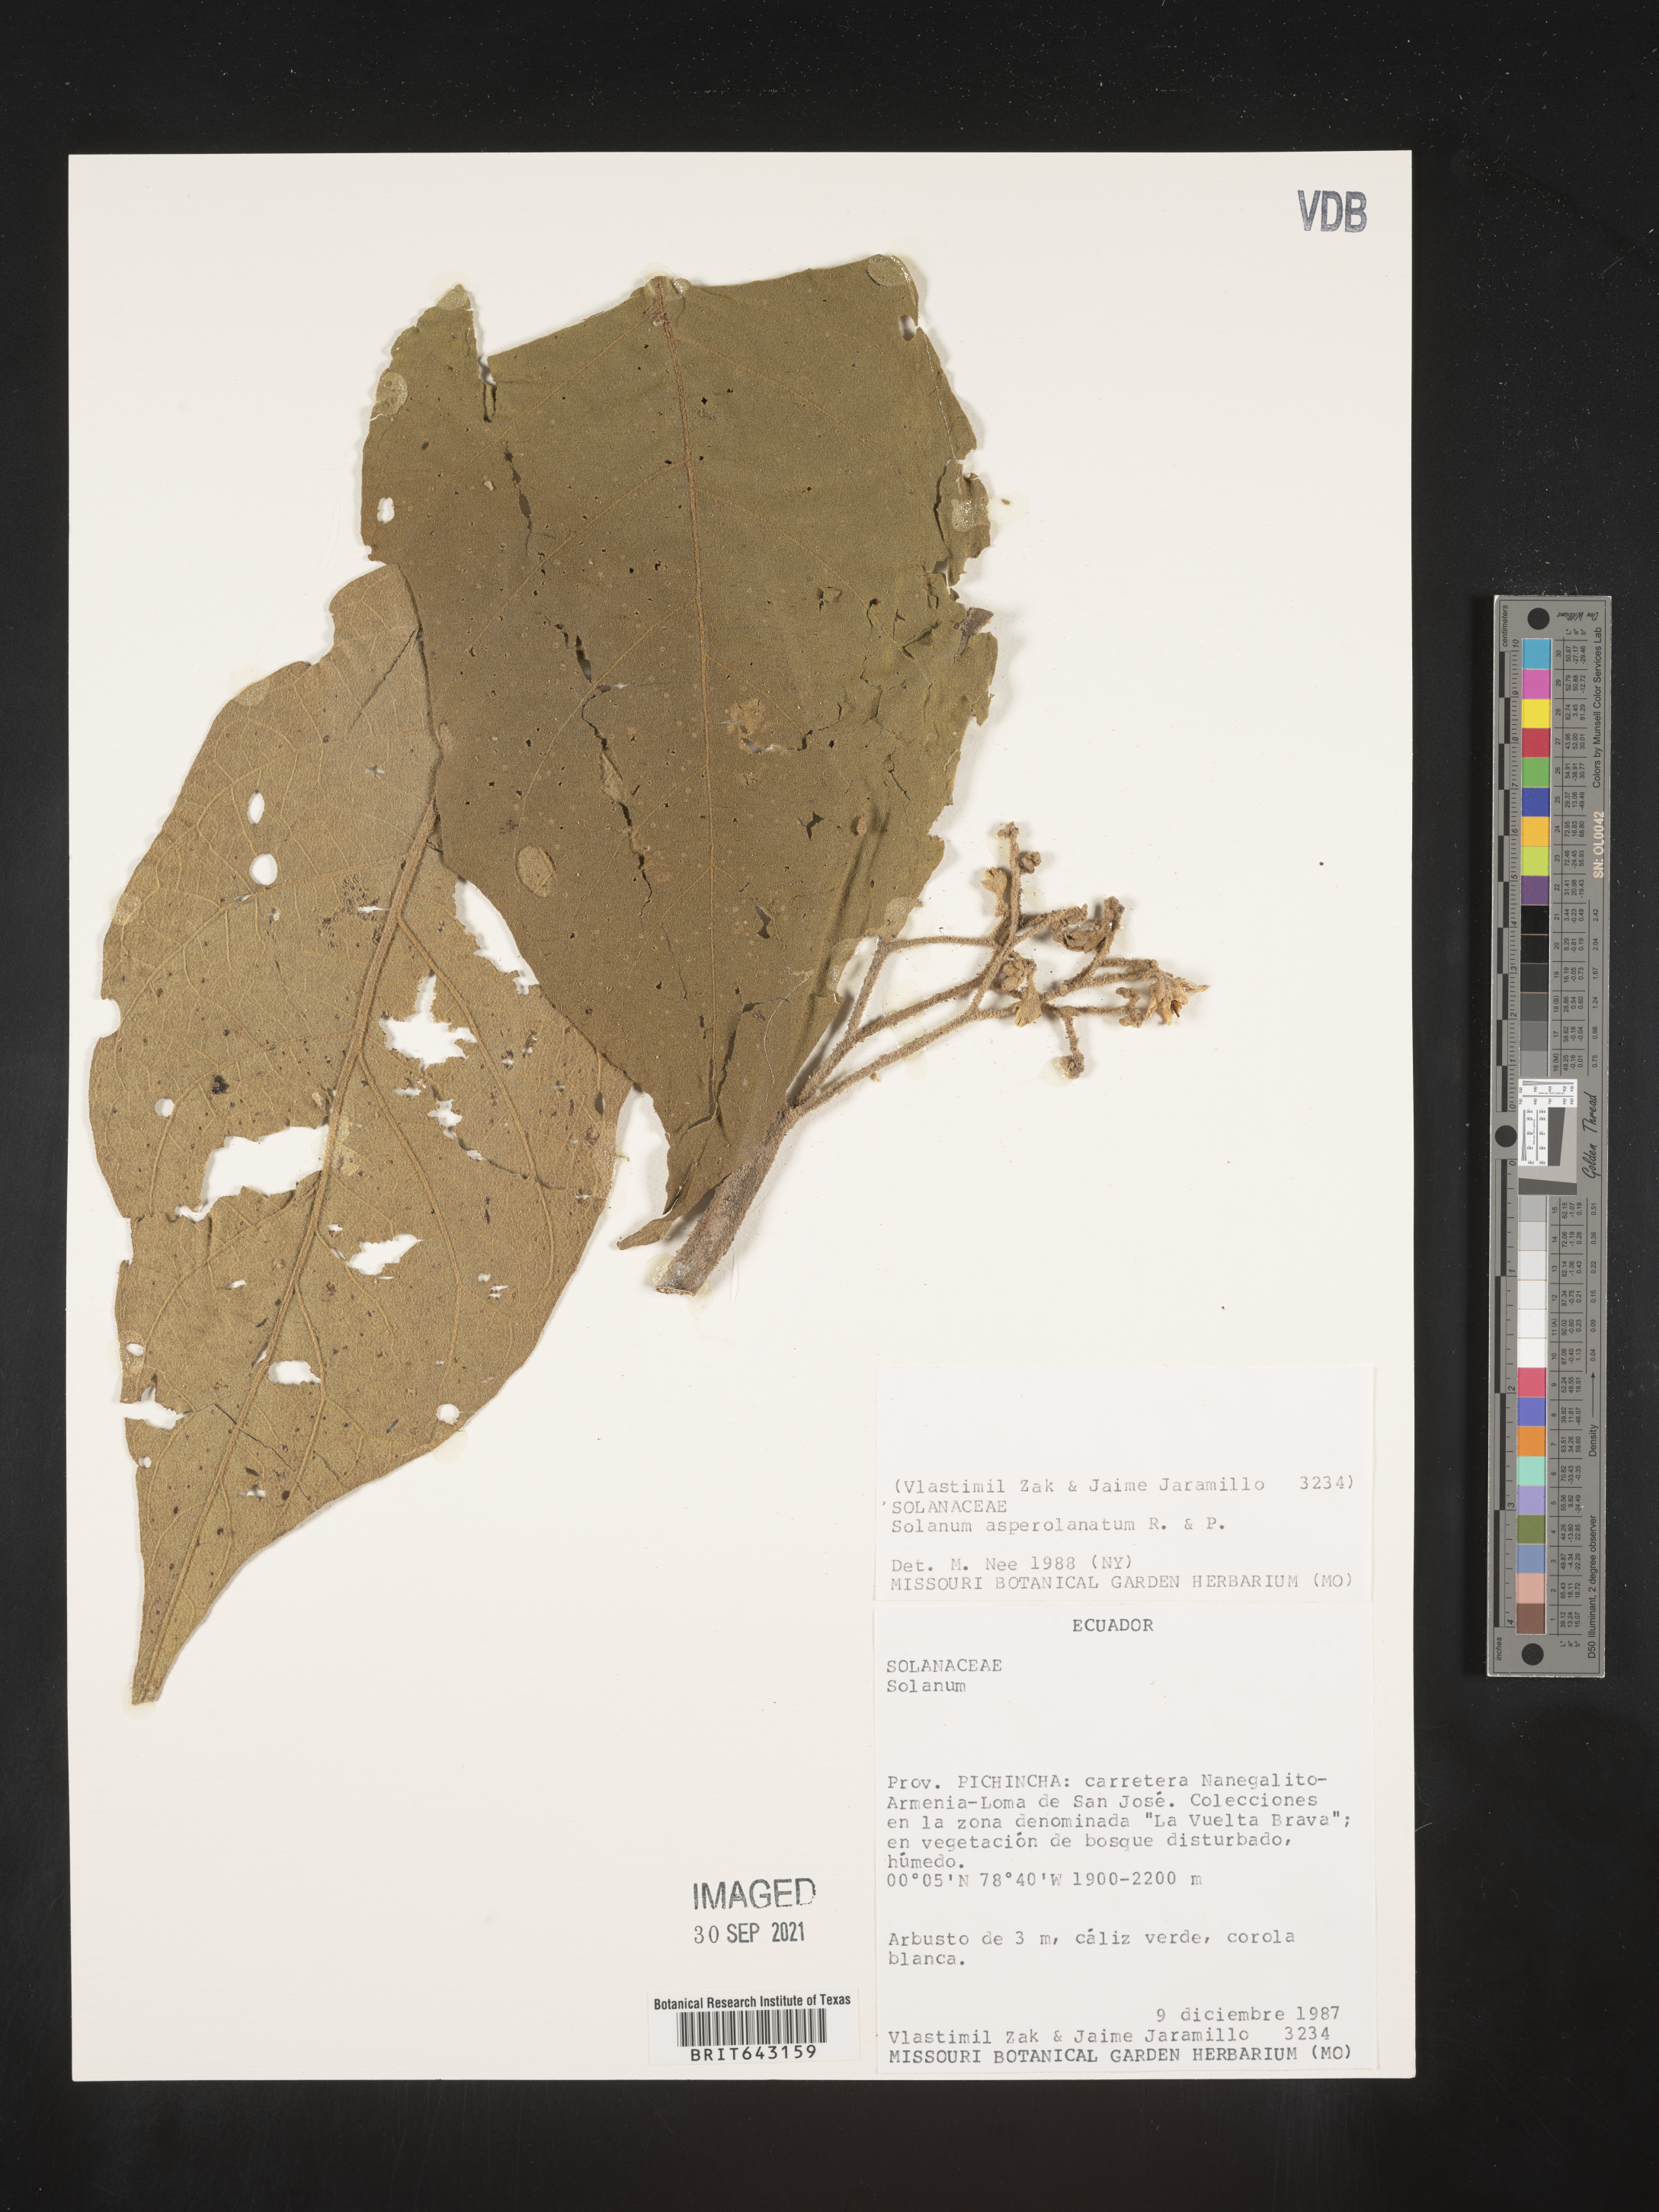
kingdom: Plantae
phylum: Tracheophyta
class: Magnoliopsida
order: Solanales
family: Solanaceae
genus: Solanum
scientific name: Solanum
